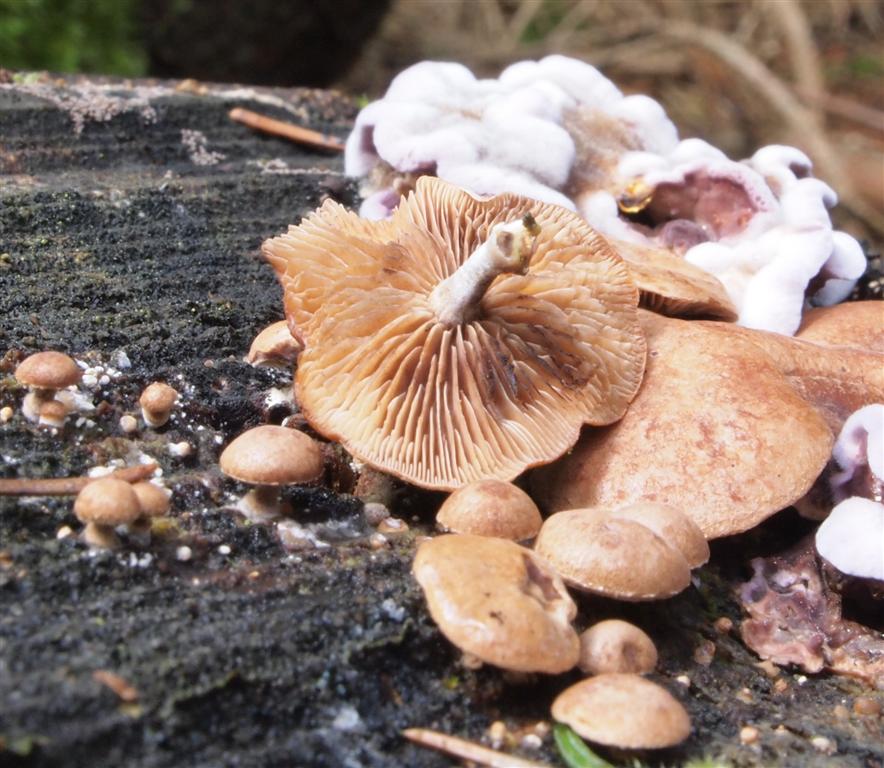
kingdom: Fungi
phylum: Basidiomycota
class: Agaricomycetes
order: Agaricales
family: Strophariaceae
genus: Deconica
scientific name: Deconica horizontalis
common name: ved-stråhat
